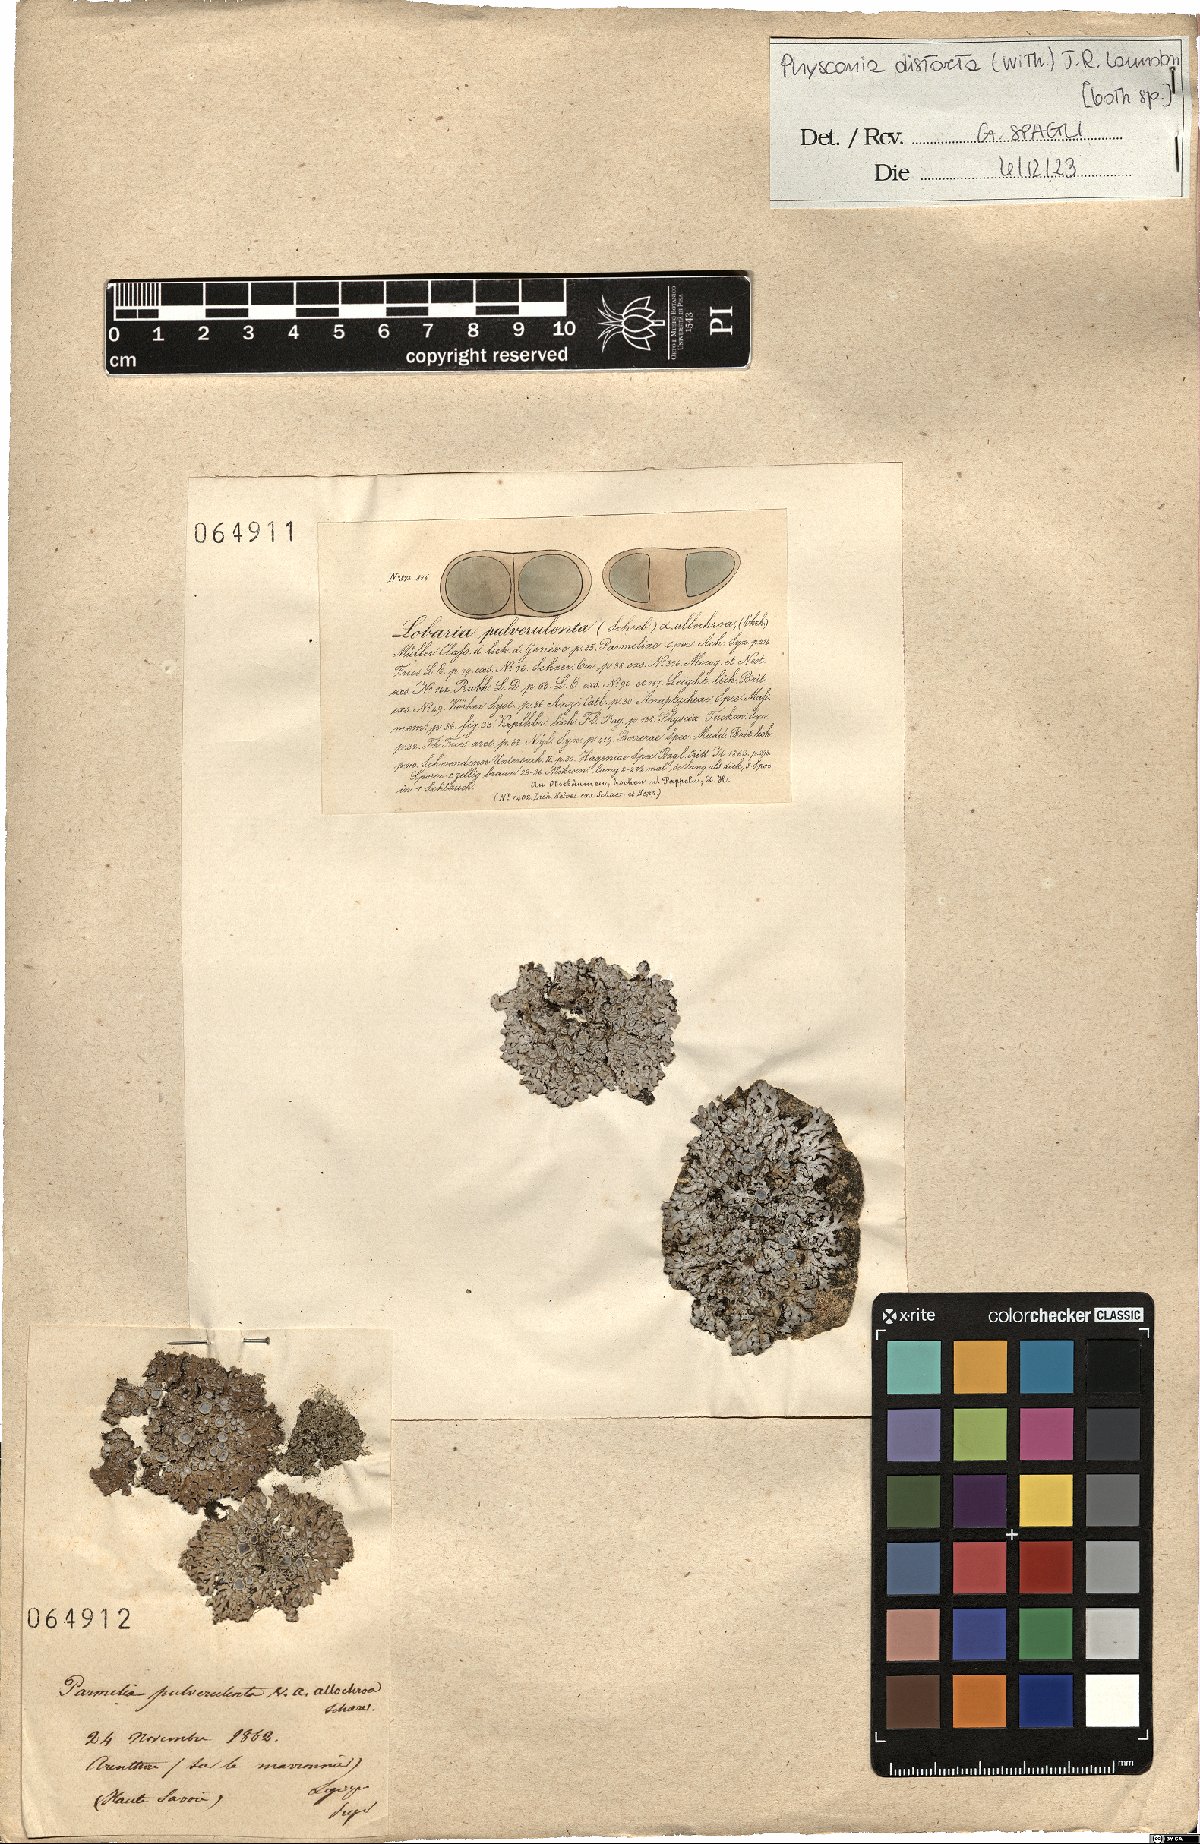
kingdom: Fungi
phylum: Ascomycota
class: Lecanoromycetes
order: Caliciales
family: Physciaceae
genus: Physconia
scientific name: Physconia distorta
